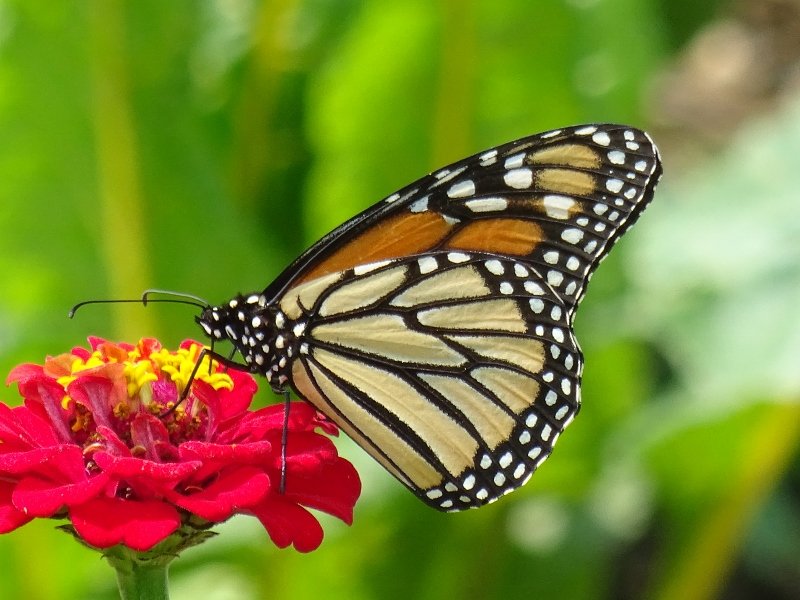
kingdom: Animalia
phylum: Arthropoda
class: Insecta
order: Lepidoptera
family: Nymphalidae
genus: Danaus
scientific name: Danaus plexippus
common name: Monarch
